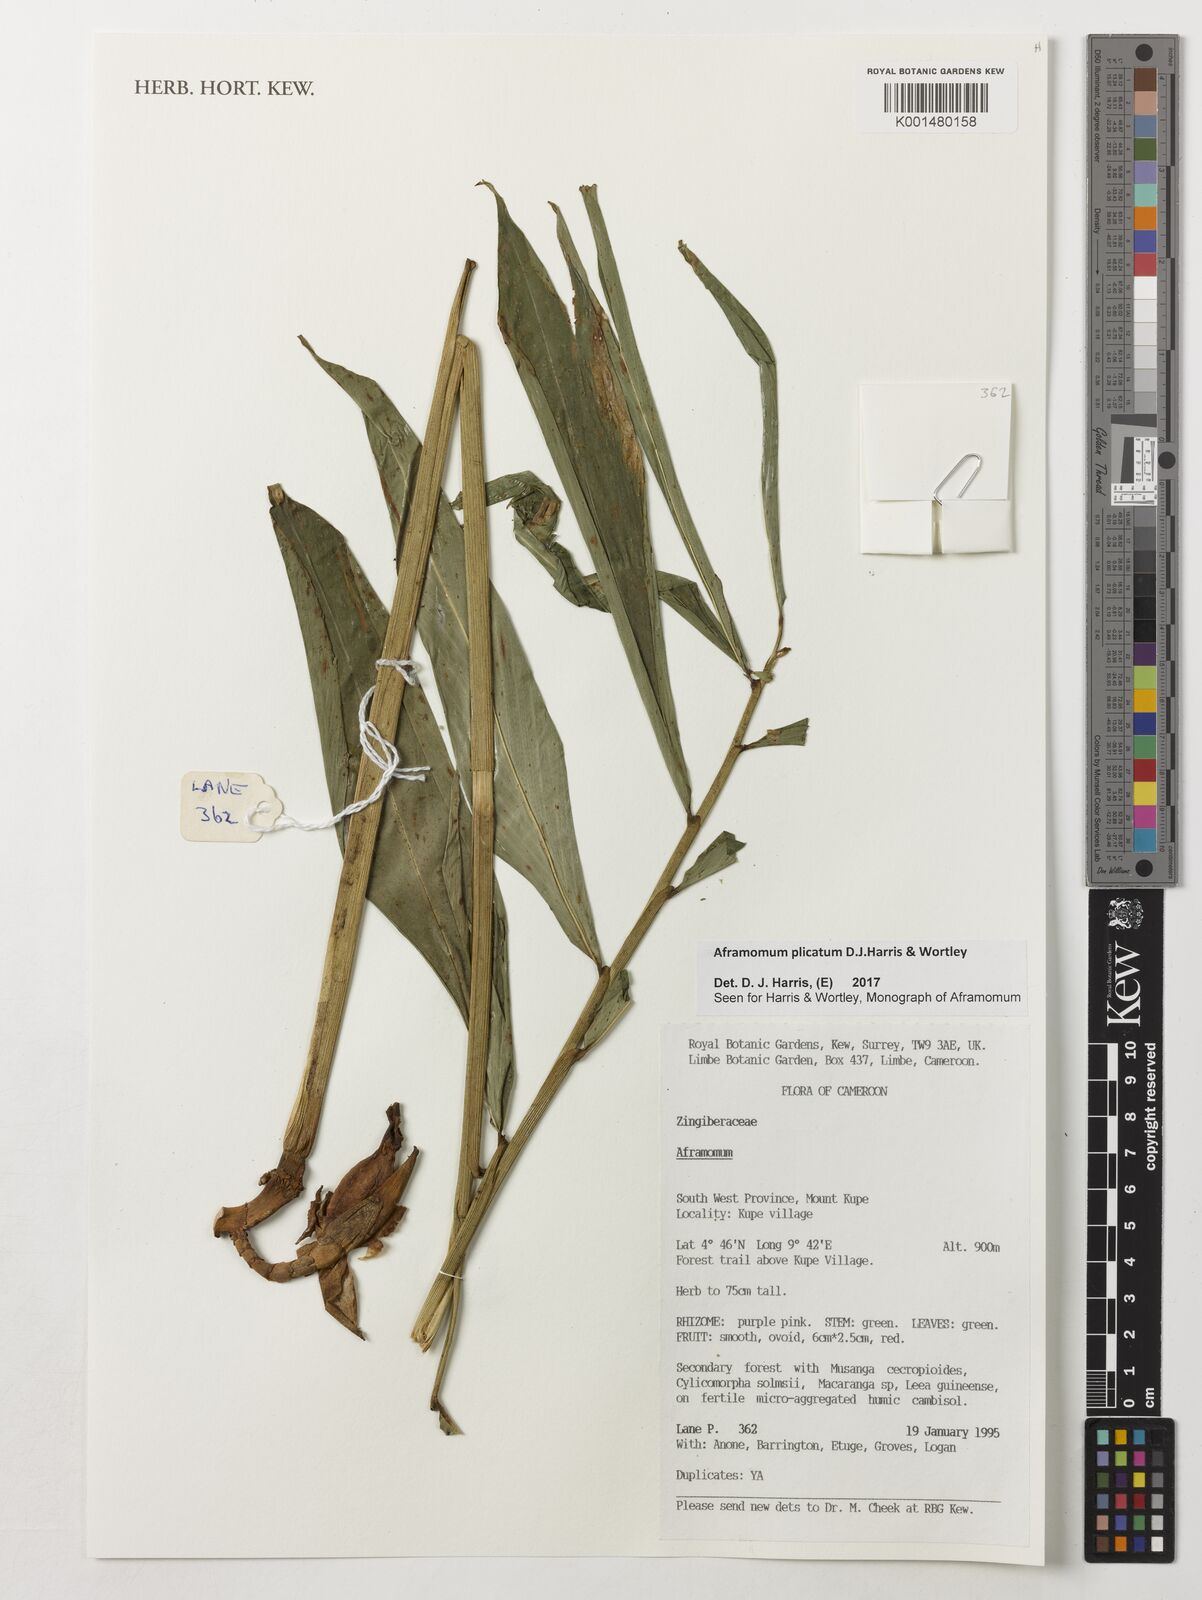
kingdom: Plantae
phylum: Tracheophyta
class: Liliopsida
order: Zingiberales
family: Zingiberaceae
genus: Aframomum
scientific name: Aframomum plicatum
